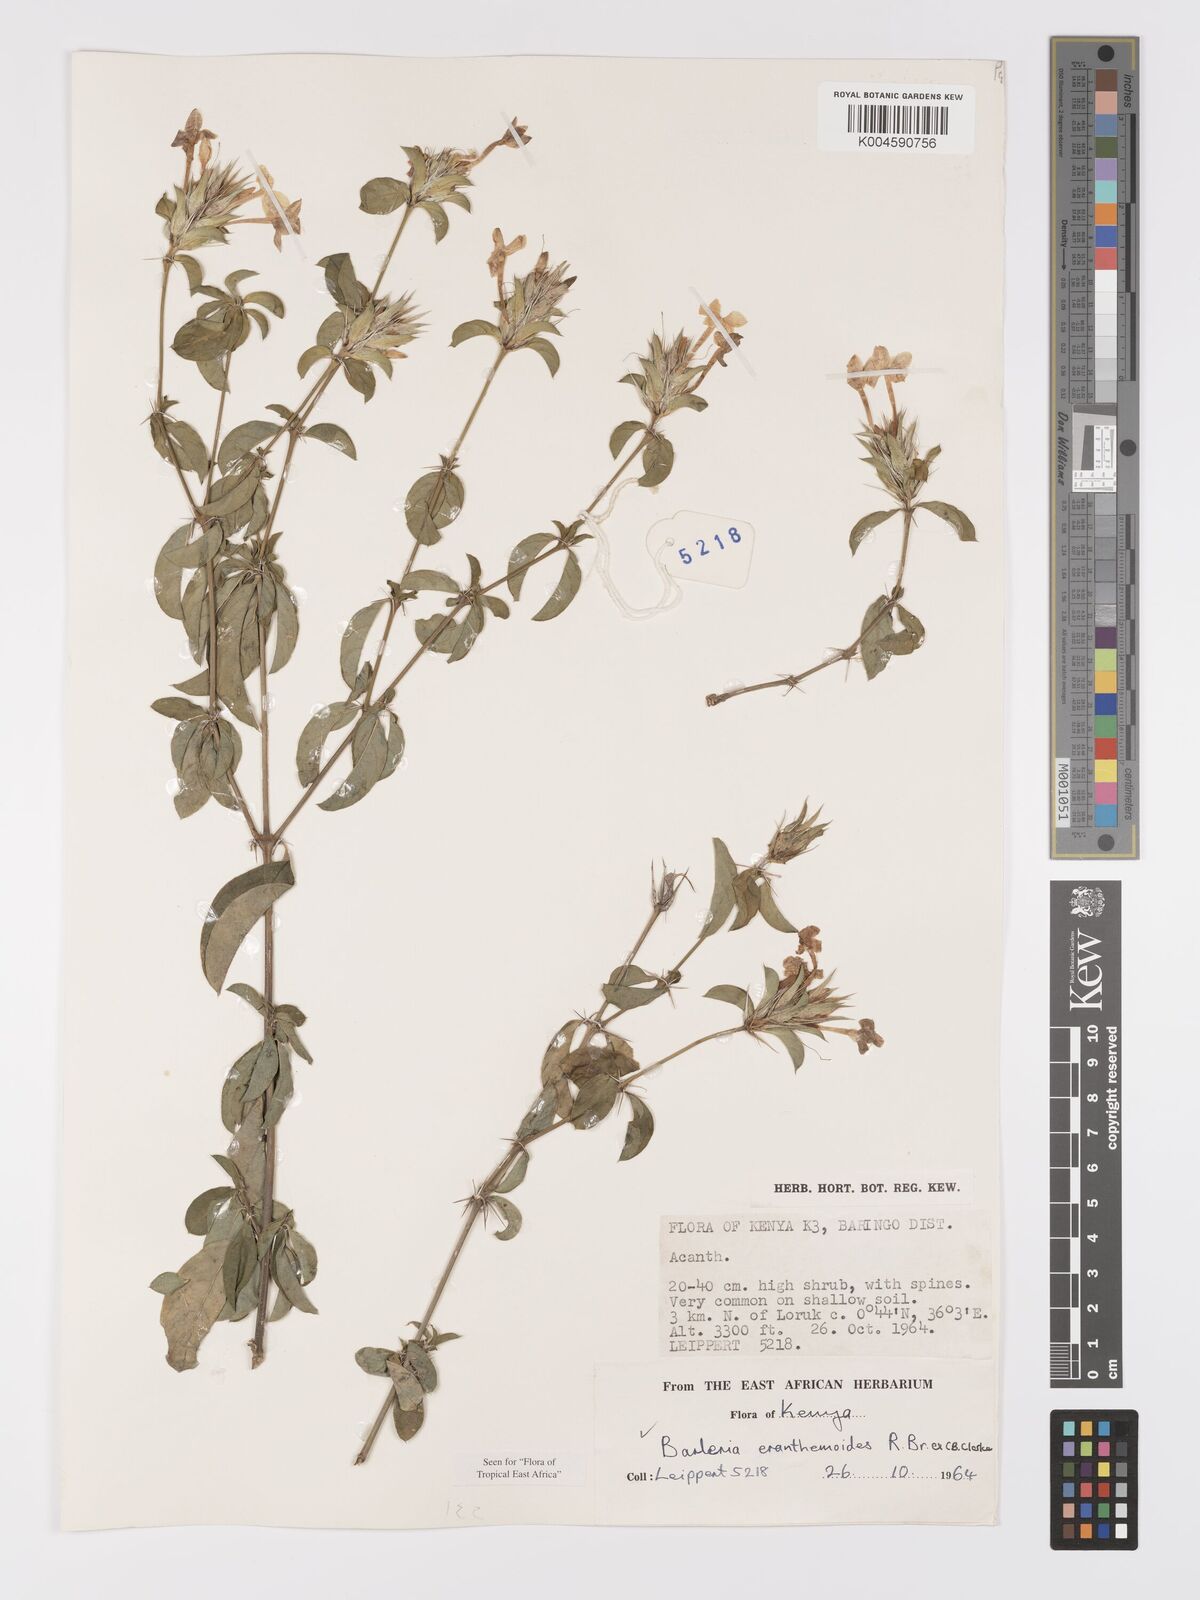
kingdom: Plantae
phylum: Tracheophyta
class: Magnoliopsida
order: Lamiales
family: Acanthaceae
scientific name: Acanthaceae
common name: Acanthaceae
